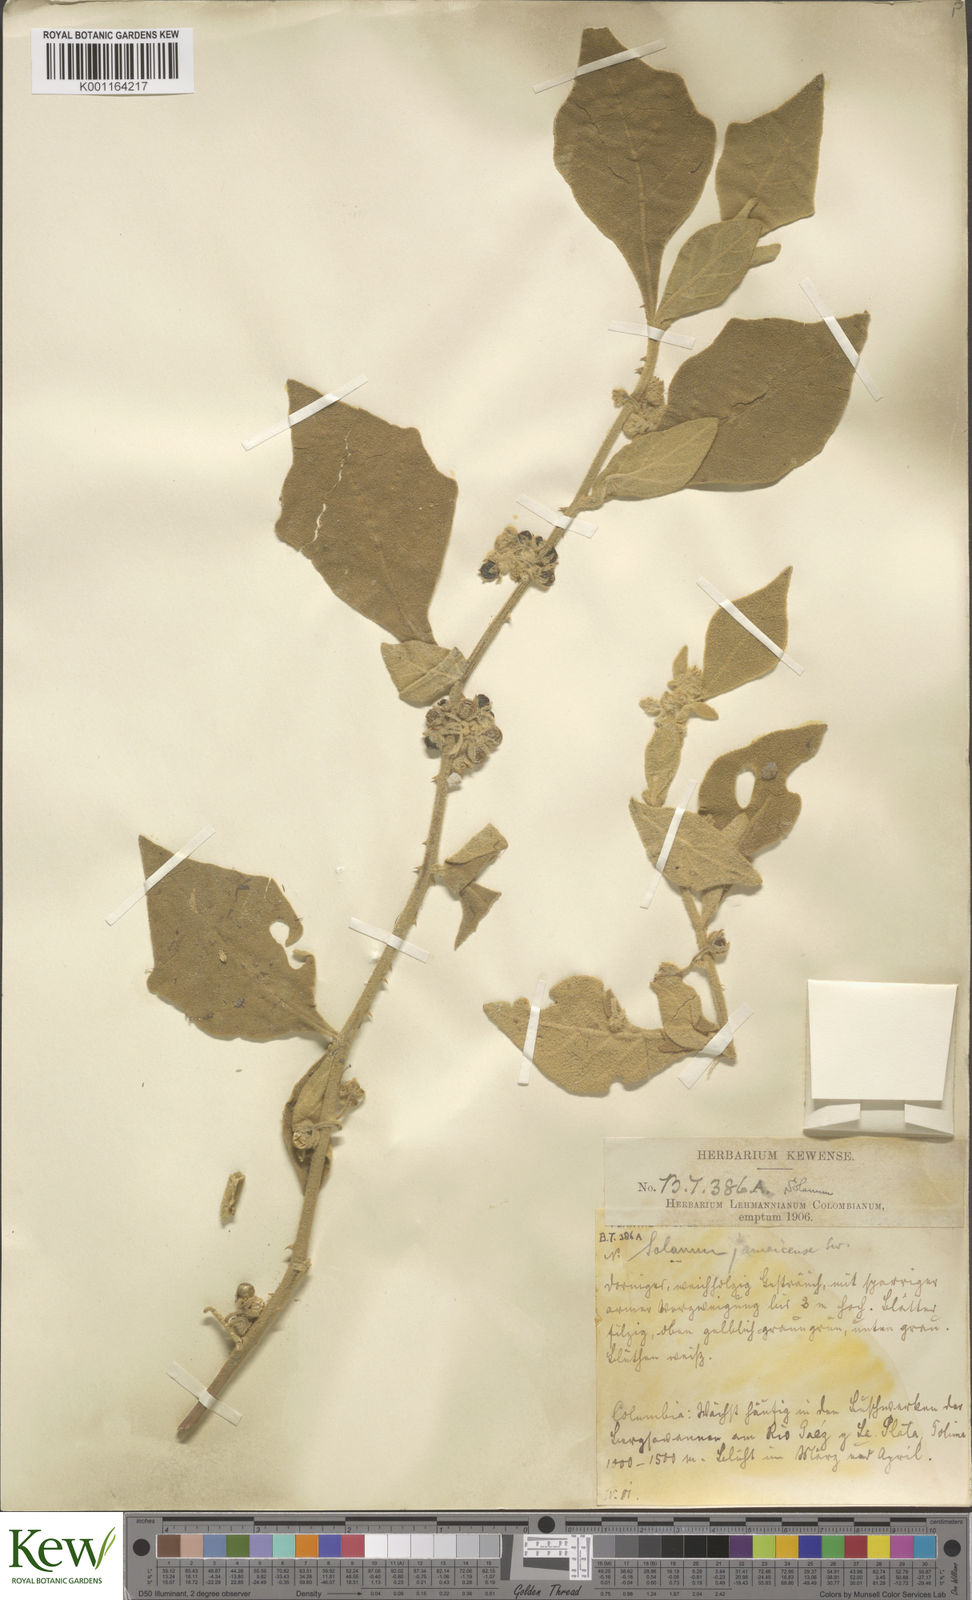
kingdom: Plantae
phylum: Tracheophyta
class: Magnoliopsida
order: Solanales
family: Solanaceae
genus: Solanum
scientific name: Solanum jamaicense
